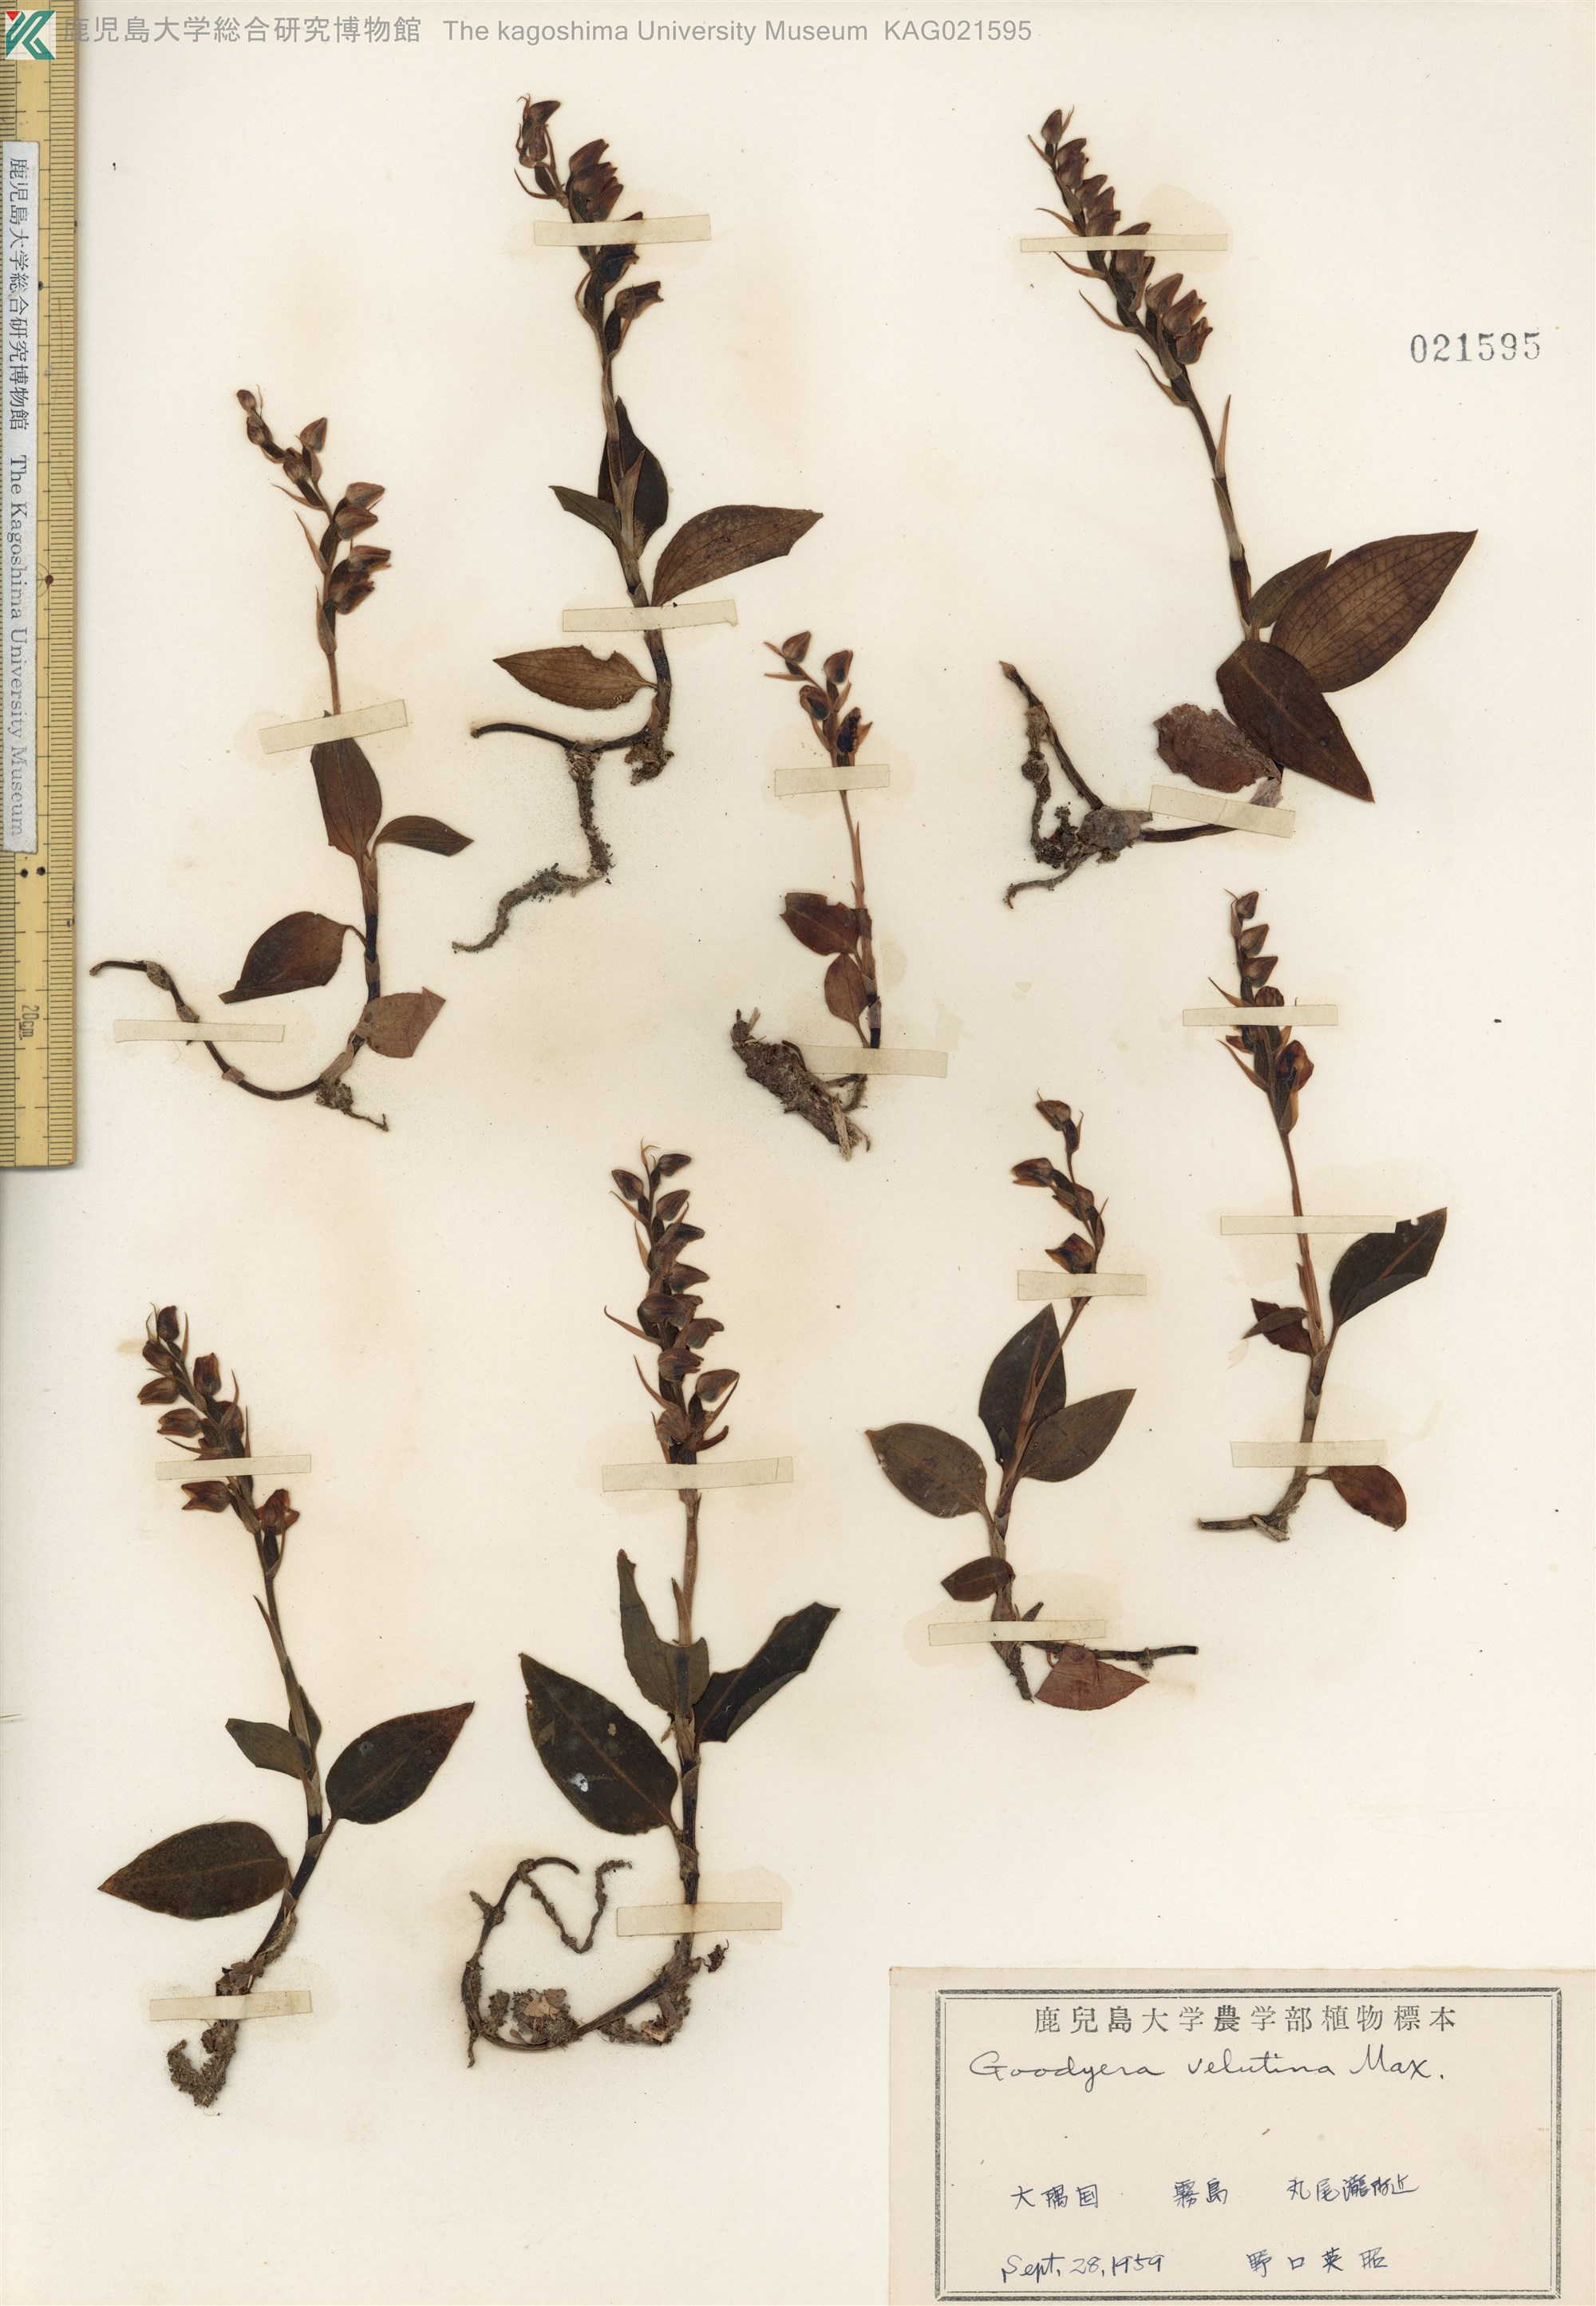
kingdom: Plantae
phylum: Tracheophyta
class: Liliopsida
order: Asparagales
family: Orchidaceae
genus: Goodyera
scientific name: Goodyera velutina
